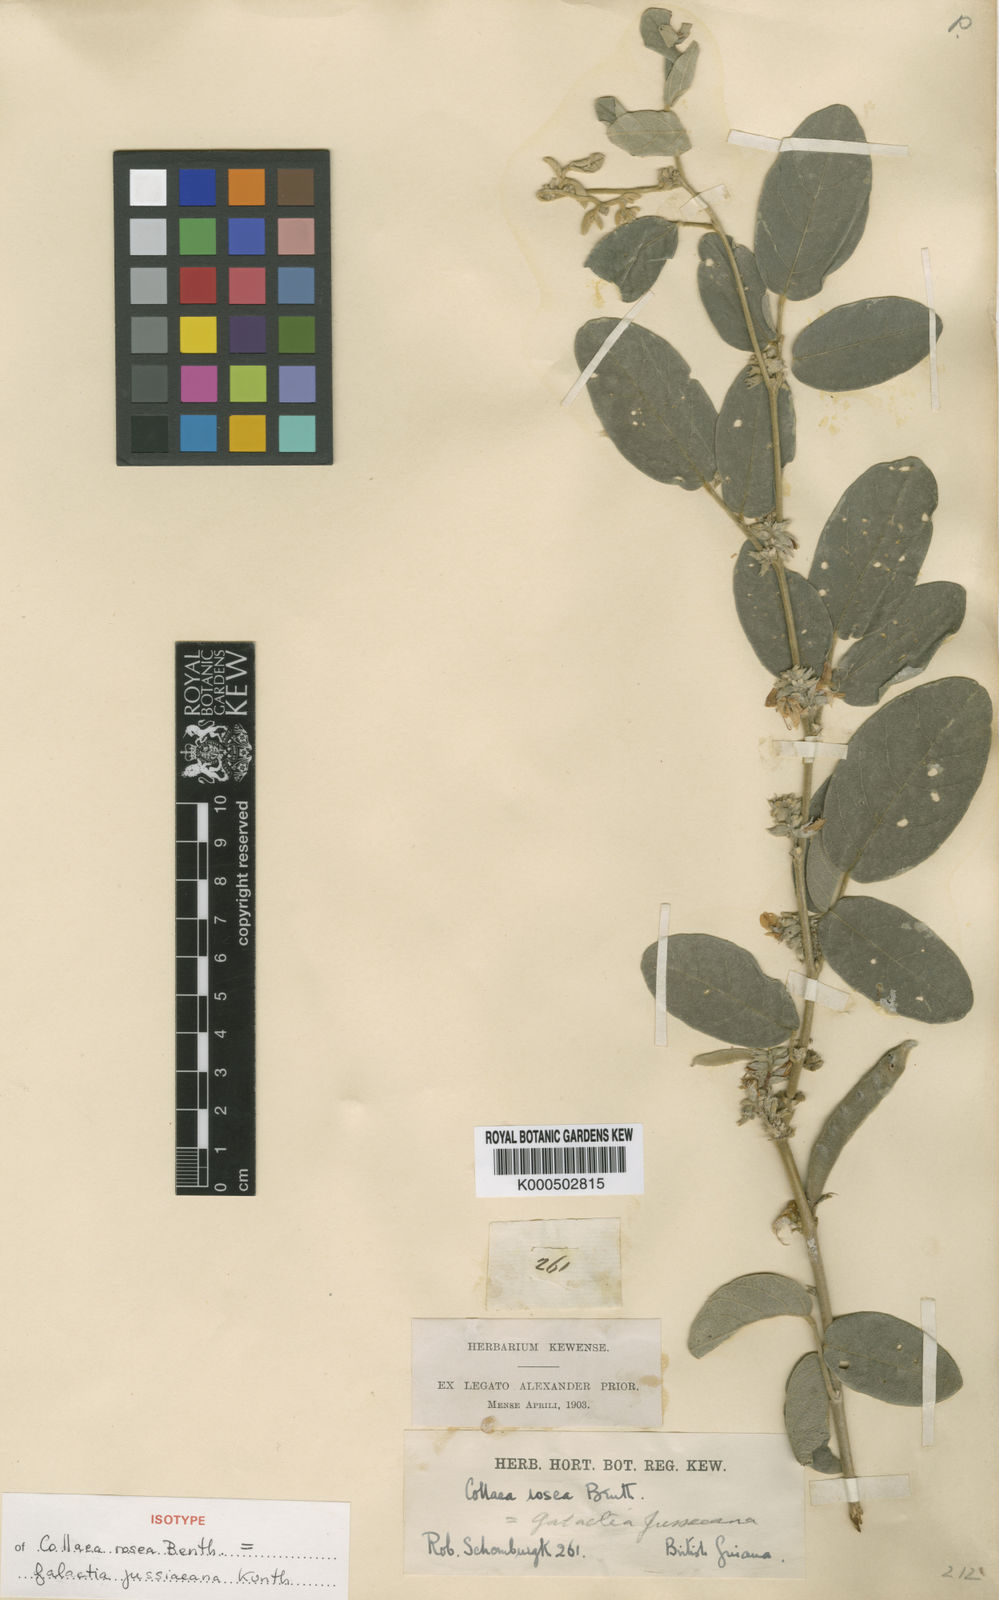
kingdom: Plantae
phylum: Tracheophyta
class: Magnoliopsida
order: Fabales
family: Fabaceae
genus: Galactia
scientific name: Galactia jussiaeana
